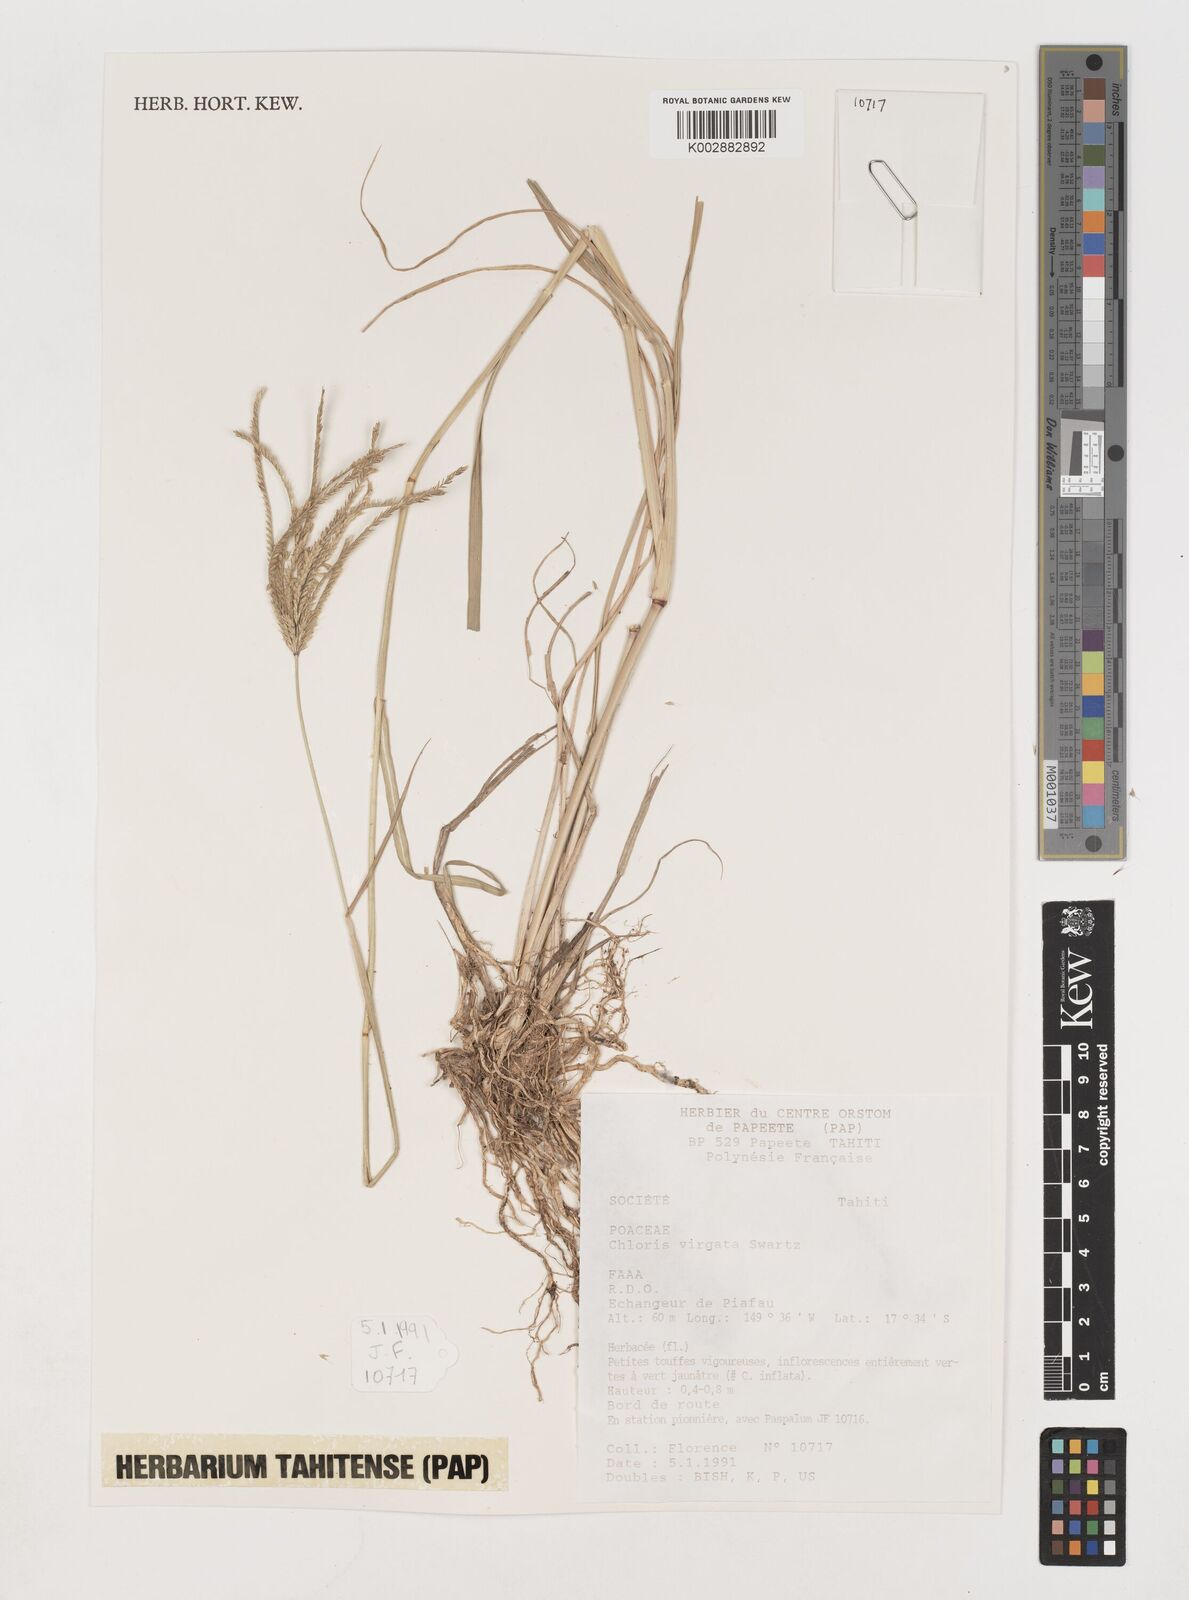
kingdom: Plantae
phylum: Tracheophyta
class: Liliopsida
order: Poales
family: Poaceae
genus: Chloris
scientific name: Chloris virgata
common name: Feathery rhodes-grass
